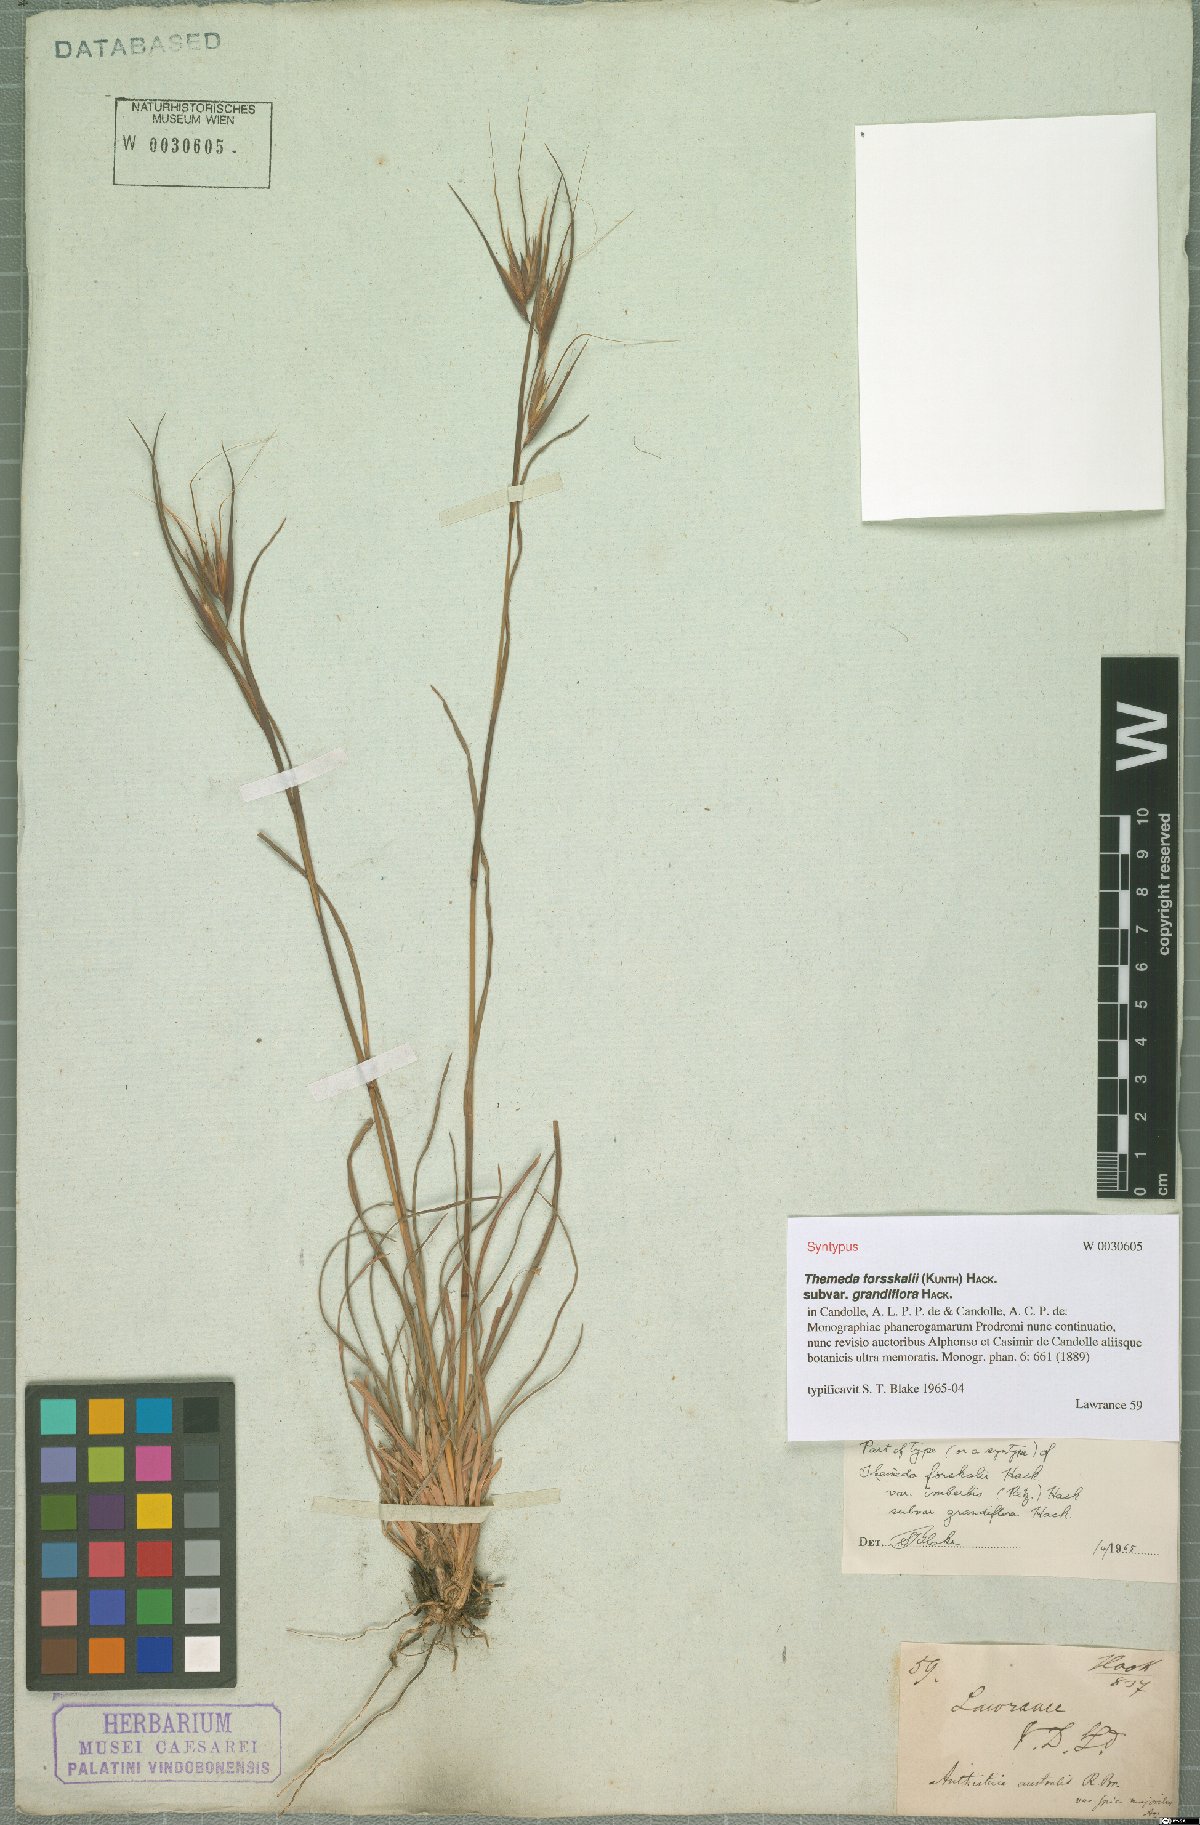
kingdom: Plantae
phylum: Tracheophyta
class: Liliopsida
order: Poales
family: Poaceae
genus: Themeda
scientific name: Themeda triandra
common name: Kangaroo grass
